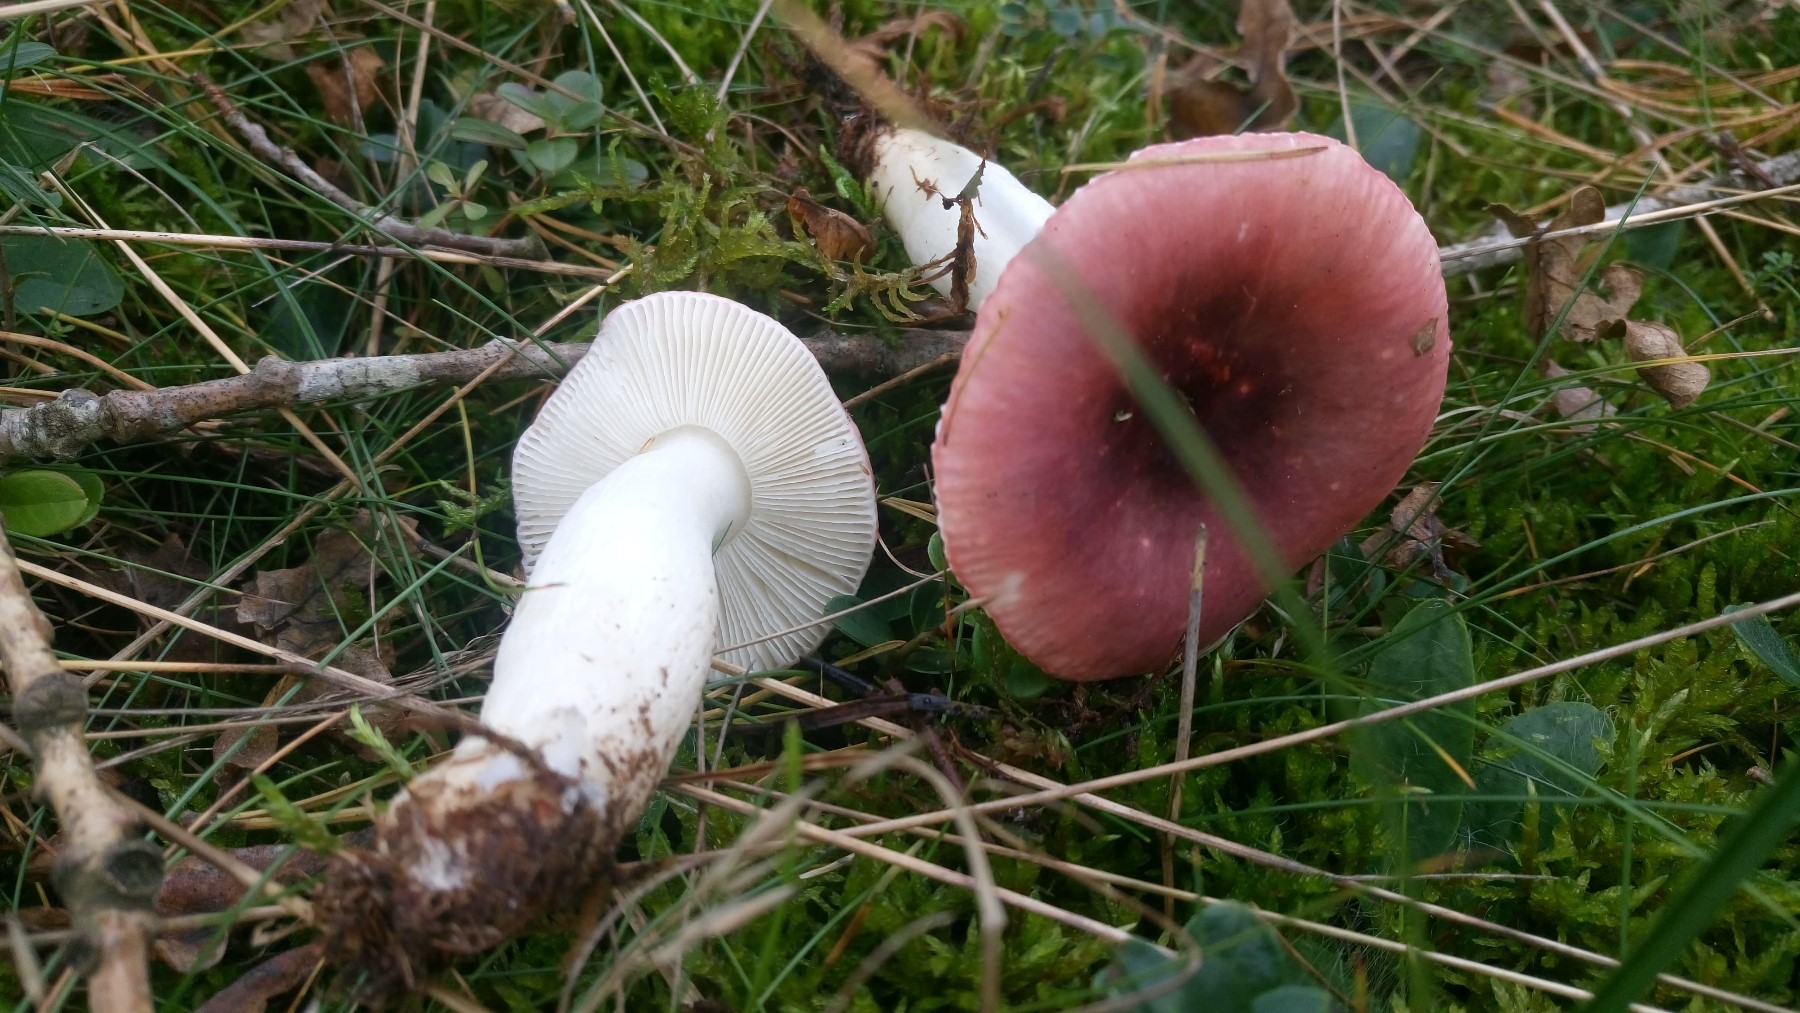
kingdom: Fungi
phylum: Basidiomycota
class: Agaricomycetes
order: Russulales
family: Russulaceae
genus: Russula
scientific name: Russula fragilis
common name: savbladet skørhat
